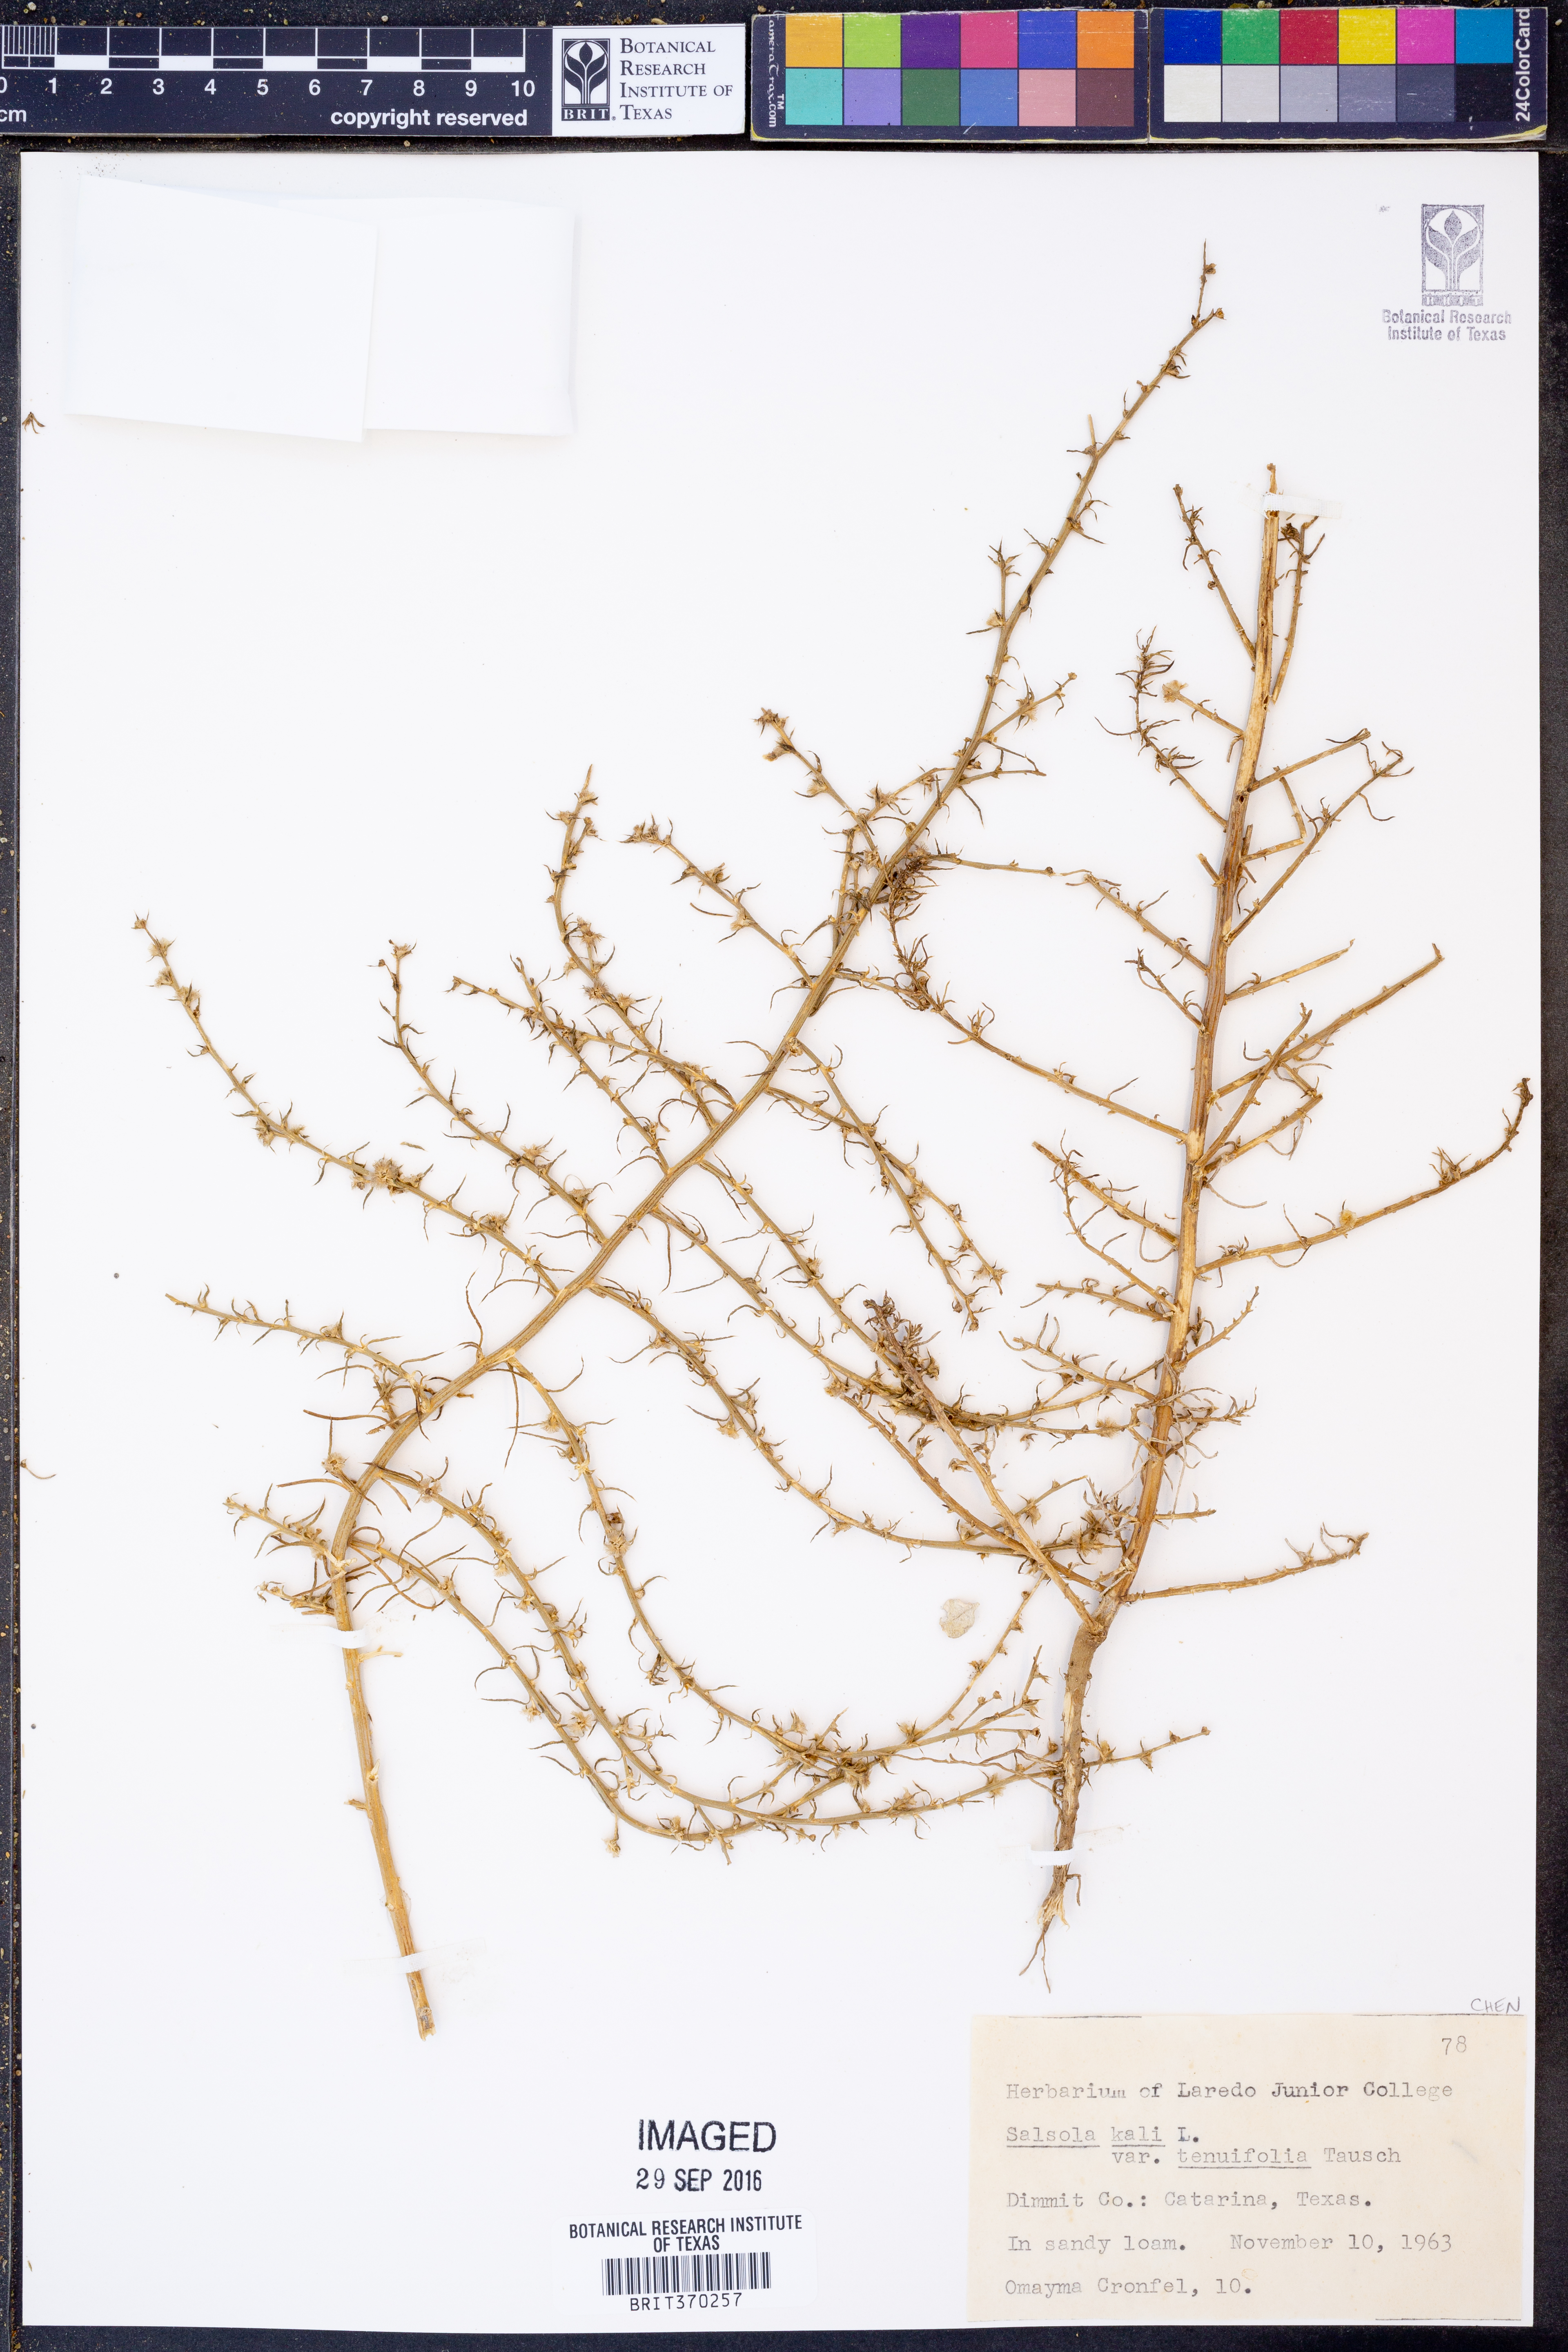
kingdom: Plantae
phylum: Tracheophyta
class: Magnoliopsida
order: Caryophyllales
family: Amaranthaceae
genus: Salsola
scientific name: Salsola tragus
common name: Prickly russian thistle
